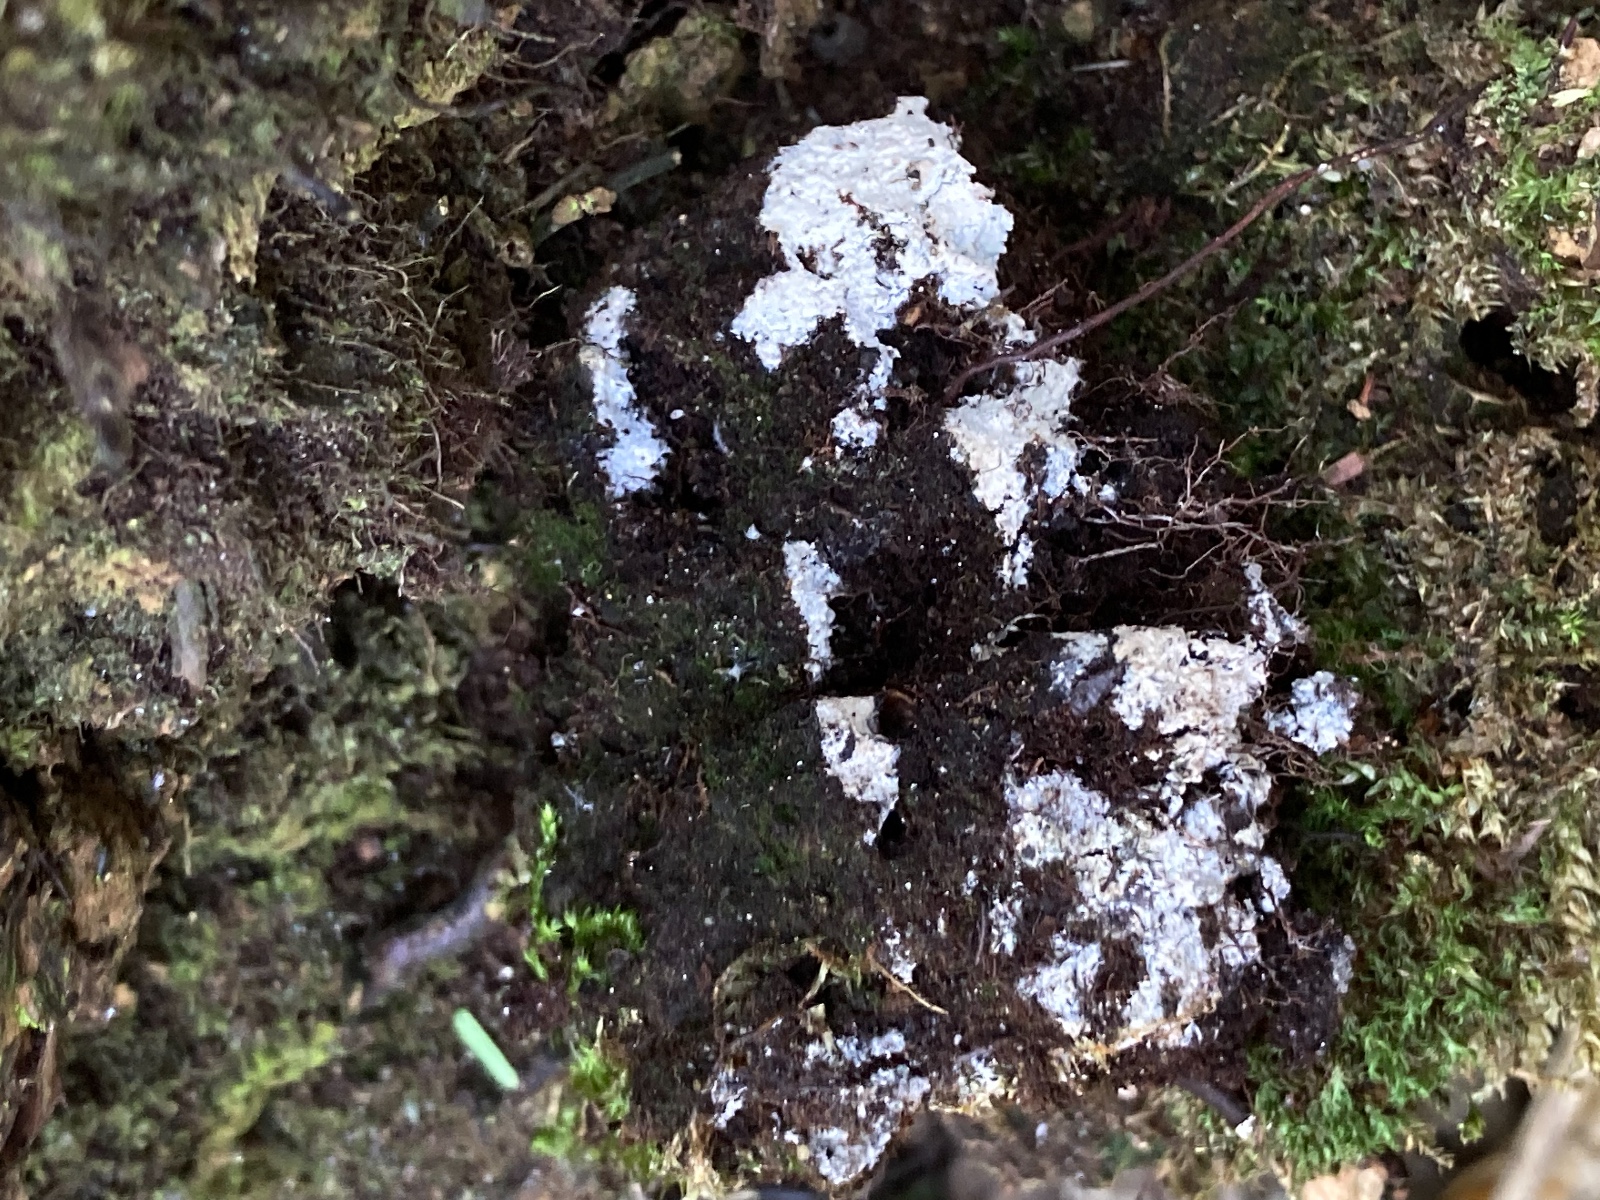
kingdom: Fungi
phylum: Basidiomycota
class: Agaricomycetes
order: Hymenochaetales
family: Rickenellaceae
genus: Peniophorella
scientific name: Peniophorella
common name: kalkskind
